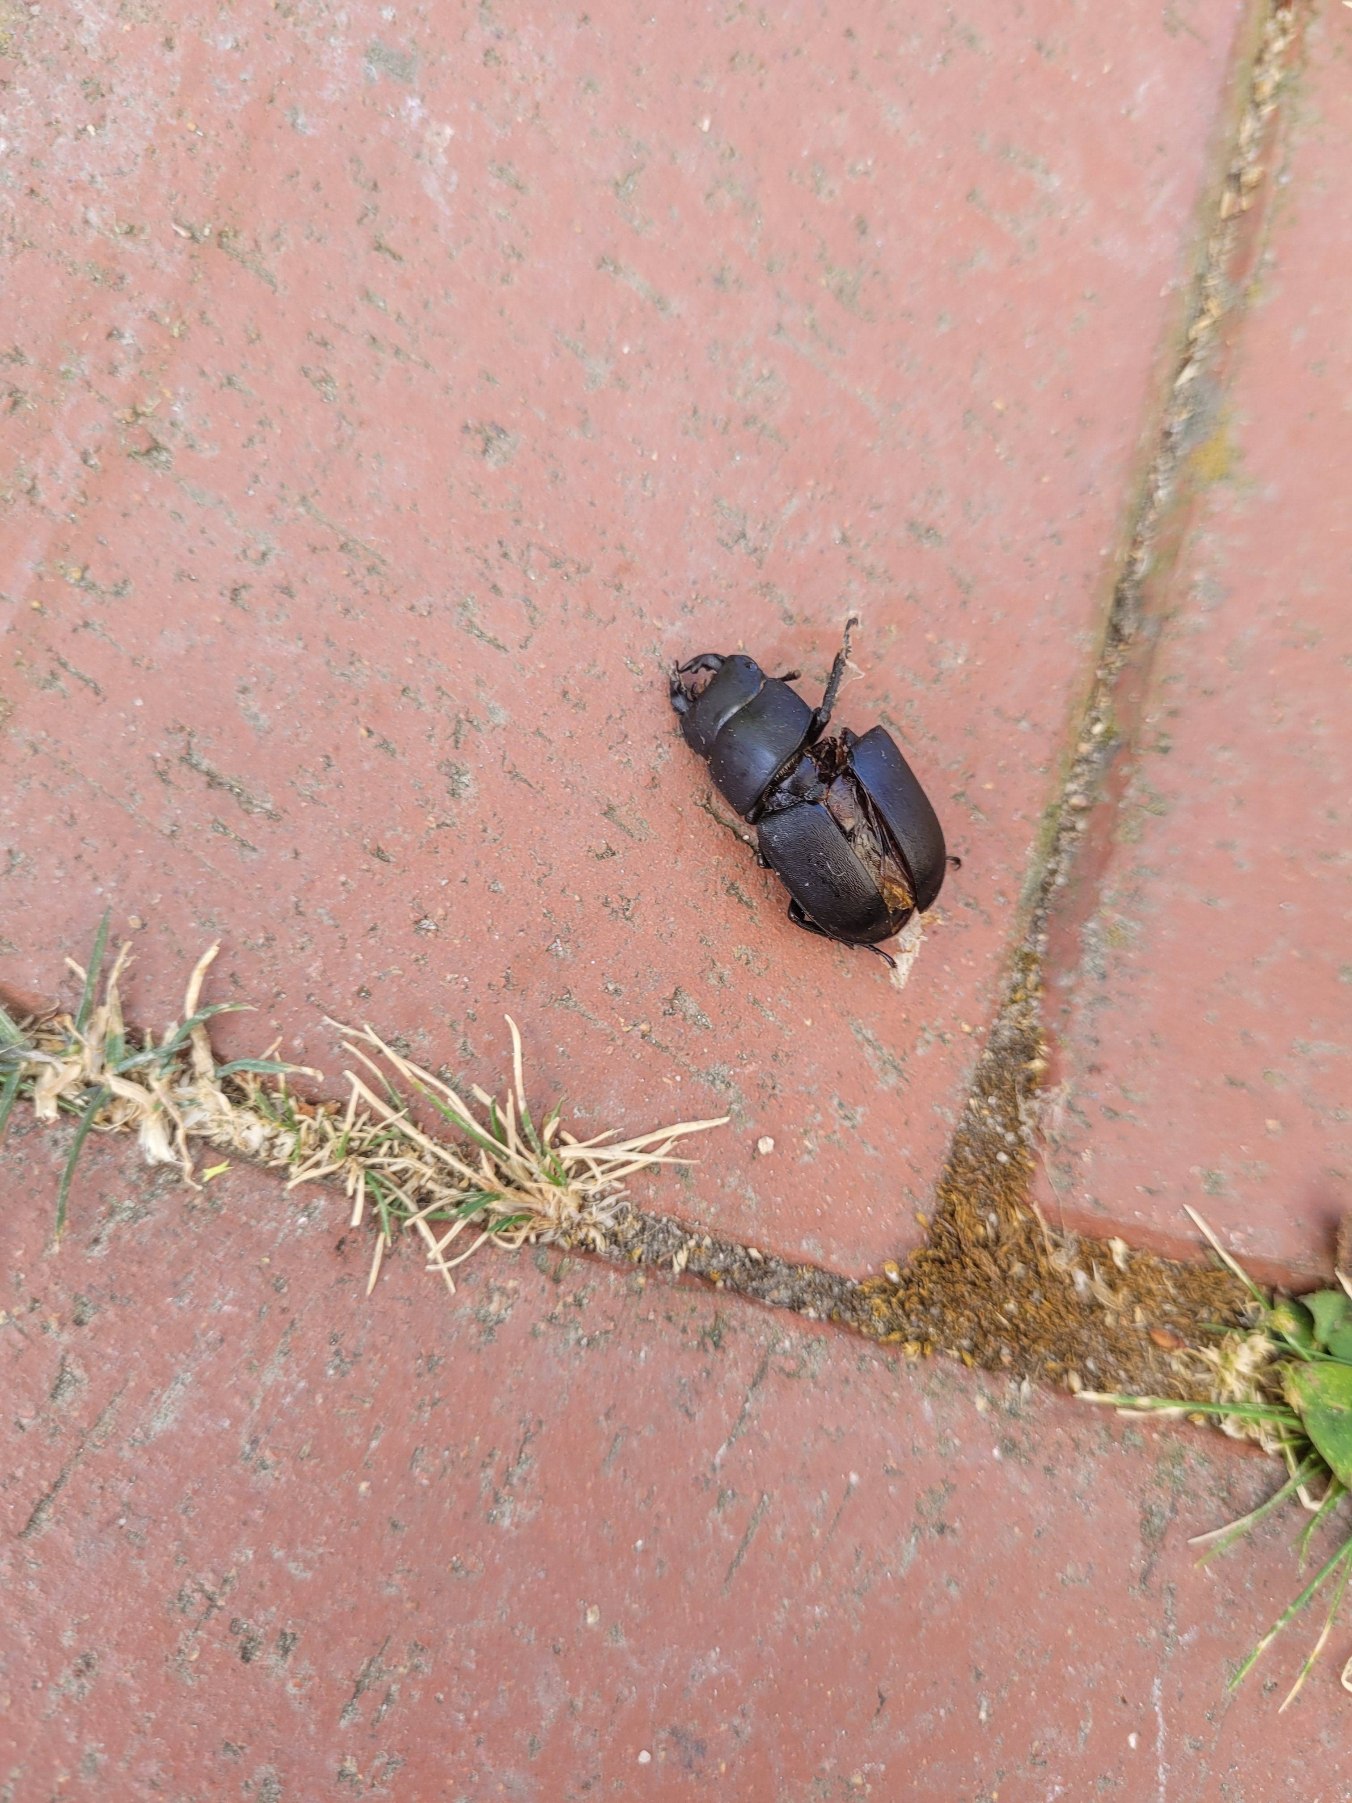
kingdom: Animalia
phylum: Arthropoda
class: Insecta
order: Coleoptera
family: Lucanidae
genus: Dorcus
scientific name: Dorcus parallelipipedus
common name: Bøghjort
